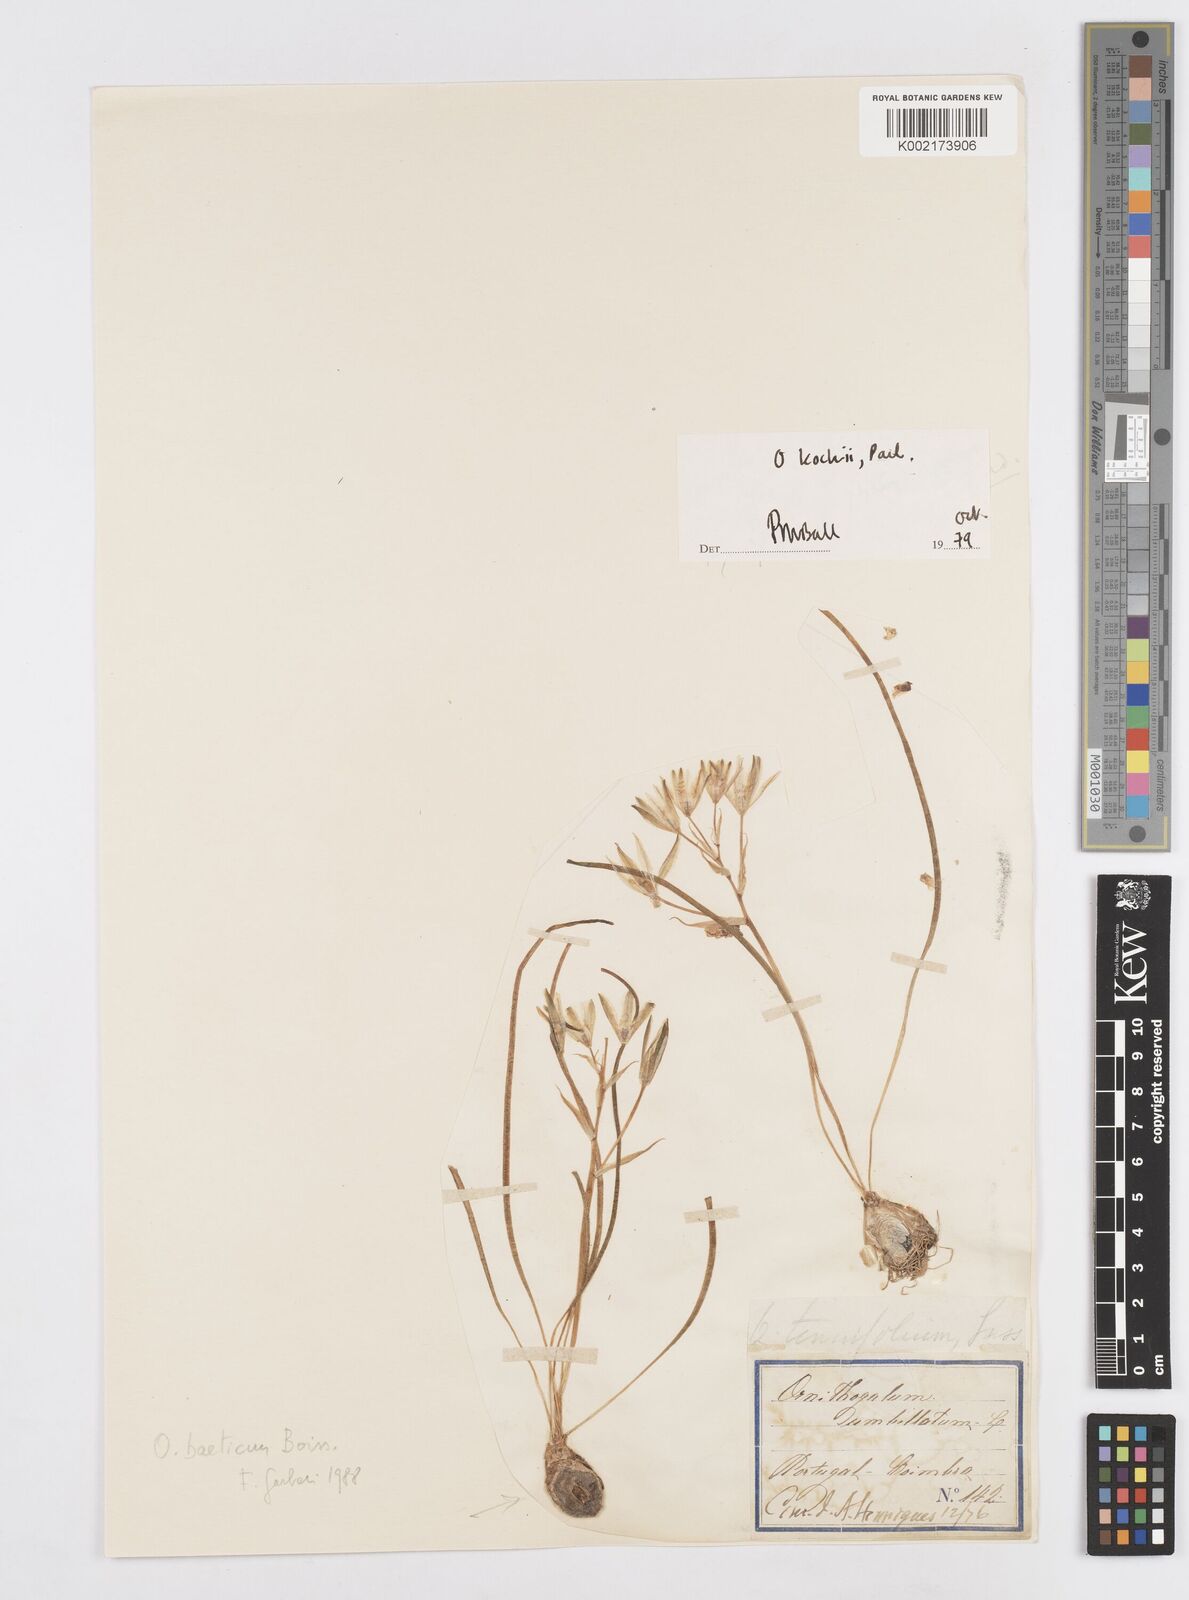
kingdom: Plantae
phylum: Tracheophyta
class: Liliopsida
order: Asparagales
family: Asparagaceae
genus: Ornithogalum
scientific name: Ornithogalum orthophyllum
